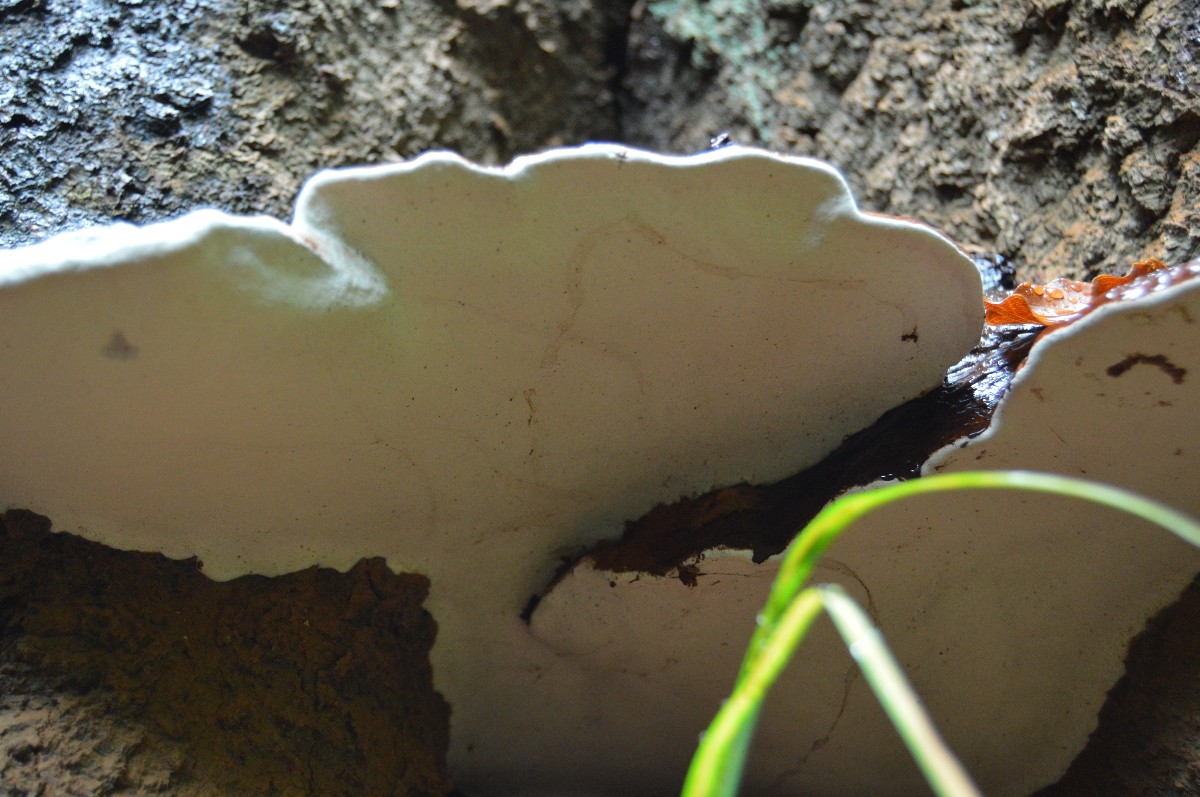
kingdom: Fungi
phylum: Basidiomycota
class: Agaricomycetes
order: Polyporales
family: Polyporaceae
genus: Ganoderma
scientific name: Ganoderma pfeifferi
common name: kobberrød lakporesvamp
